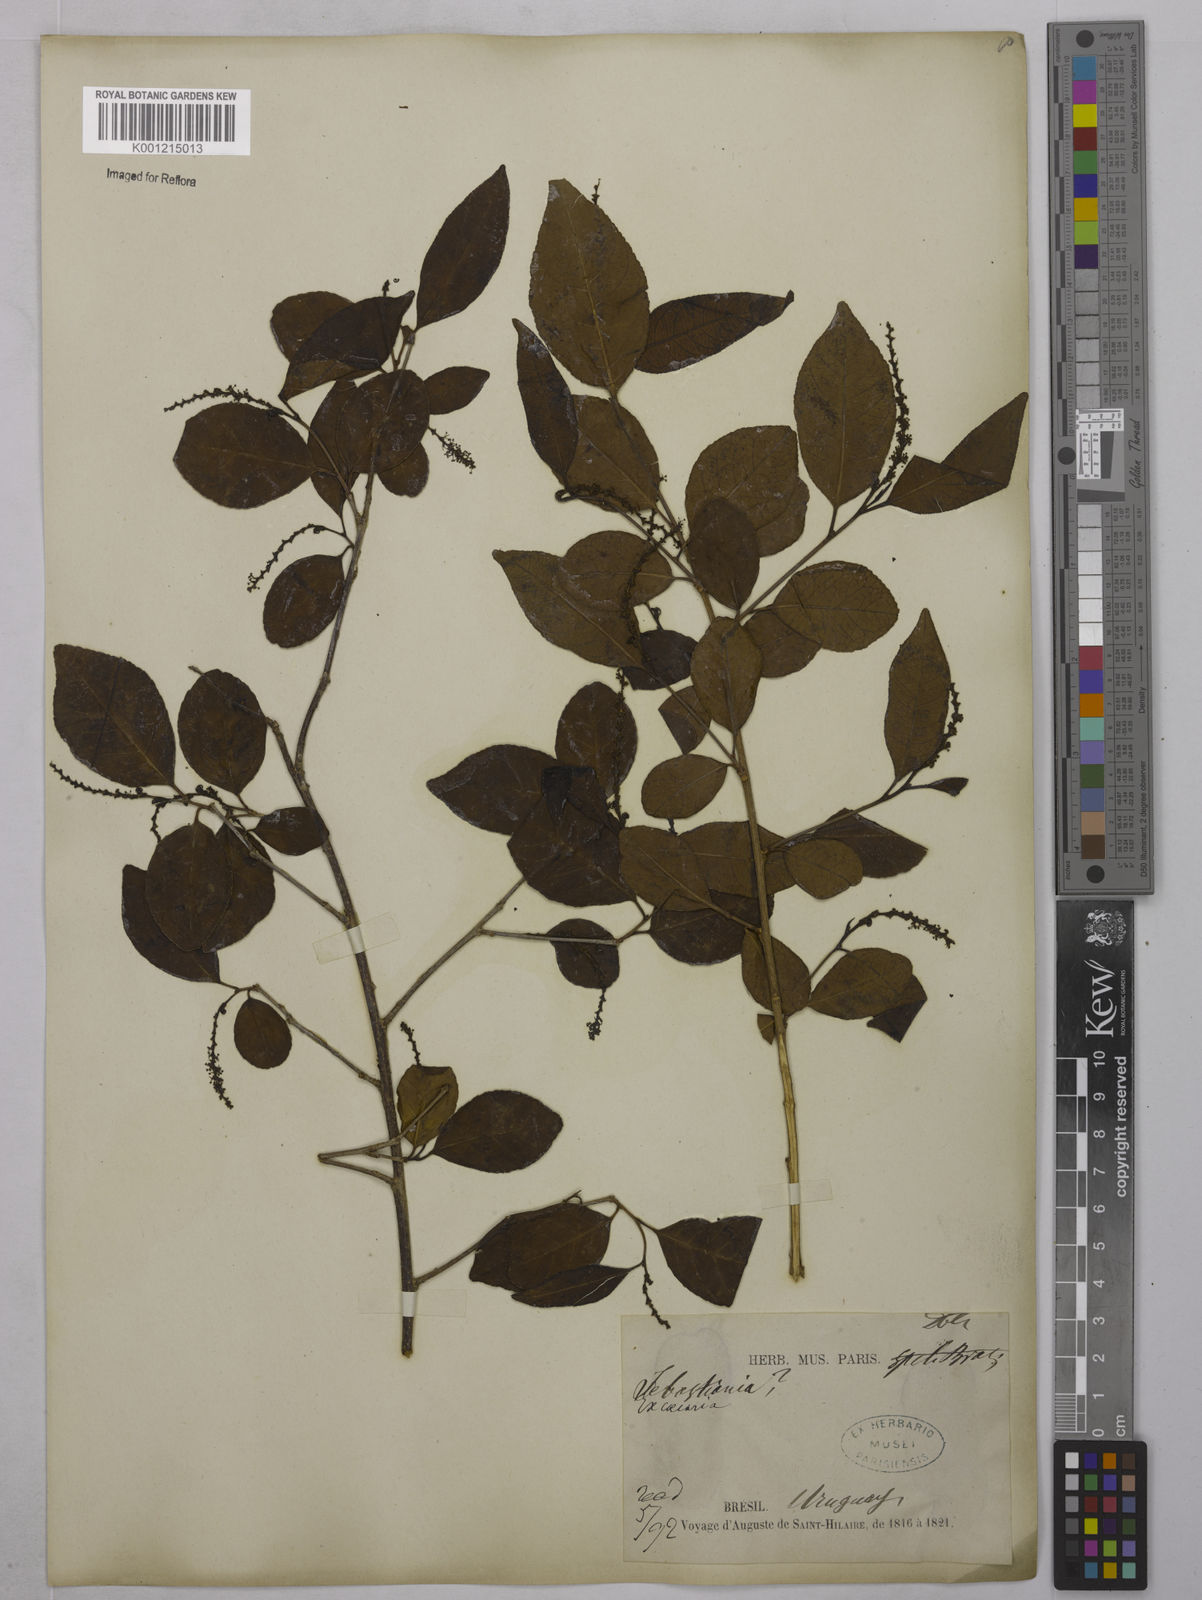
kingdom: Plantae
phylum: Tracheophyta
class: Magnoliopsida
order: Malpighiales
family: Euphorbiaceae
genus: Sebastiania
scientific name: Sebastiania brasiliensis
